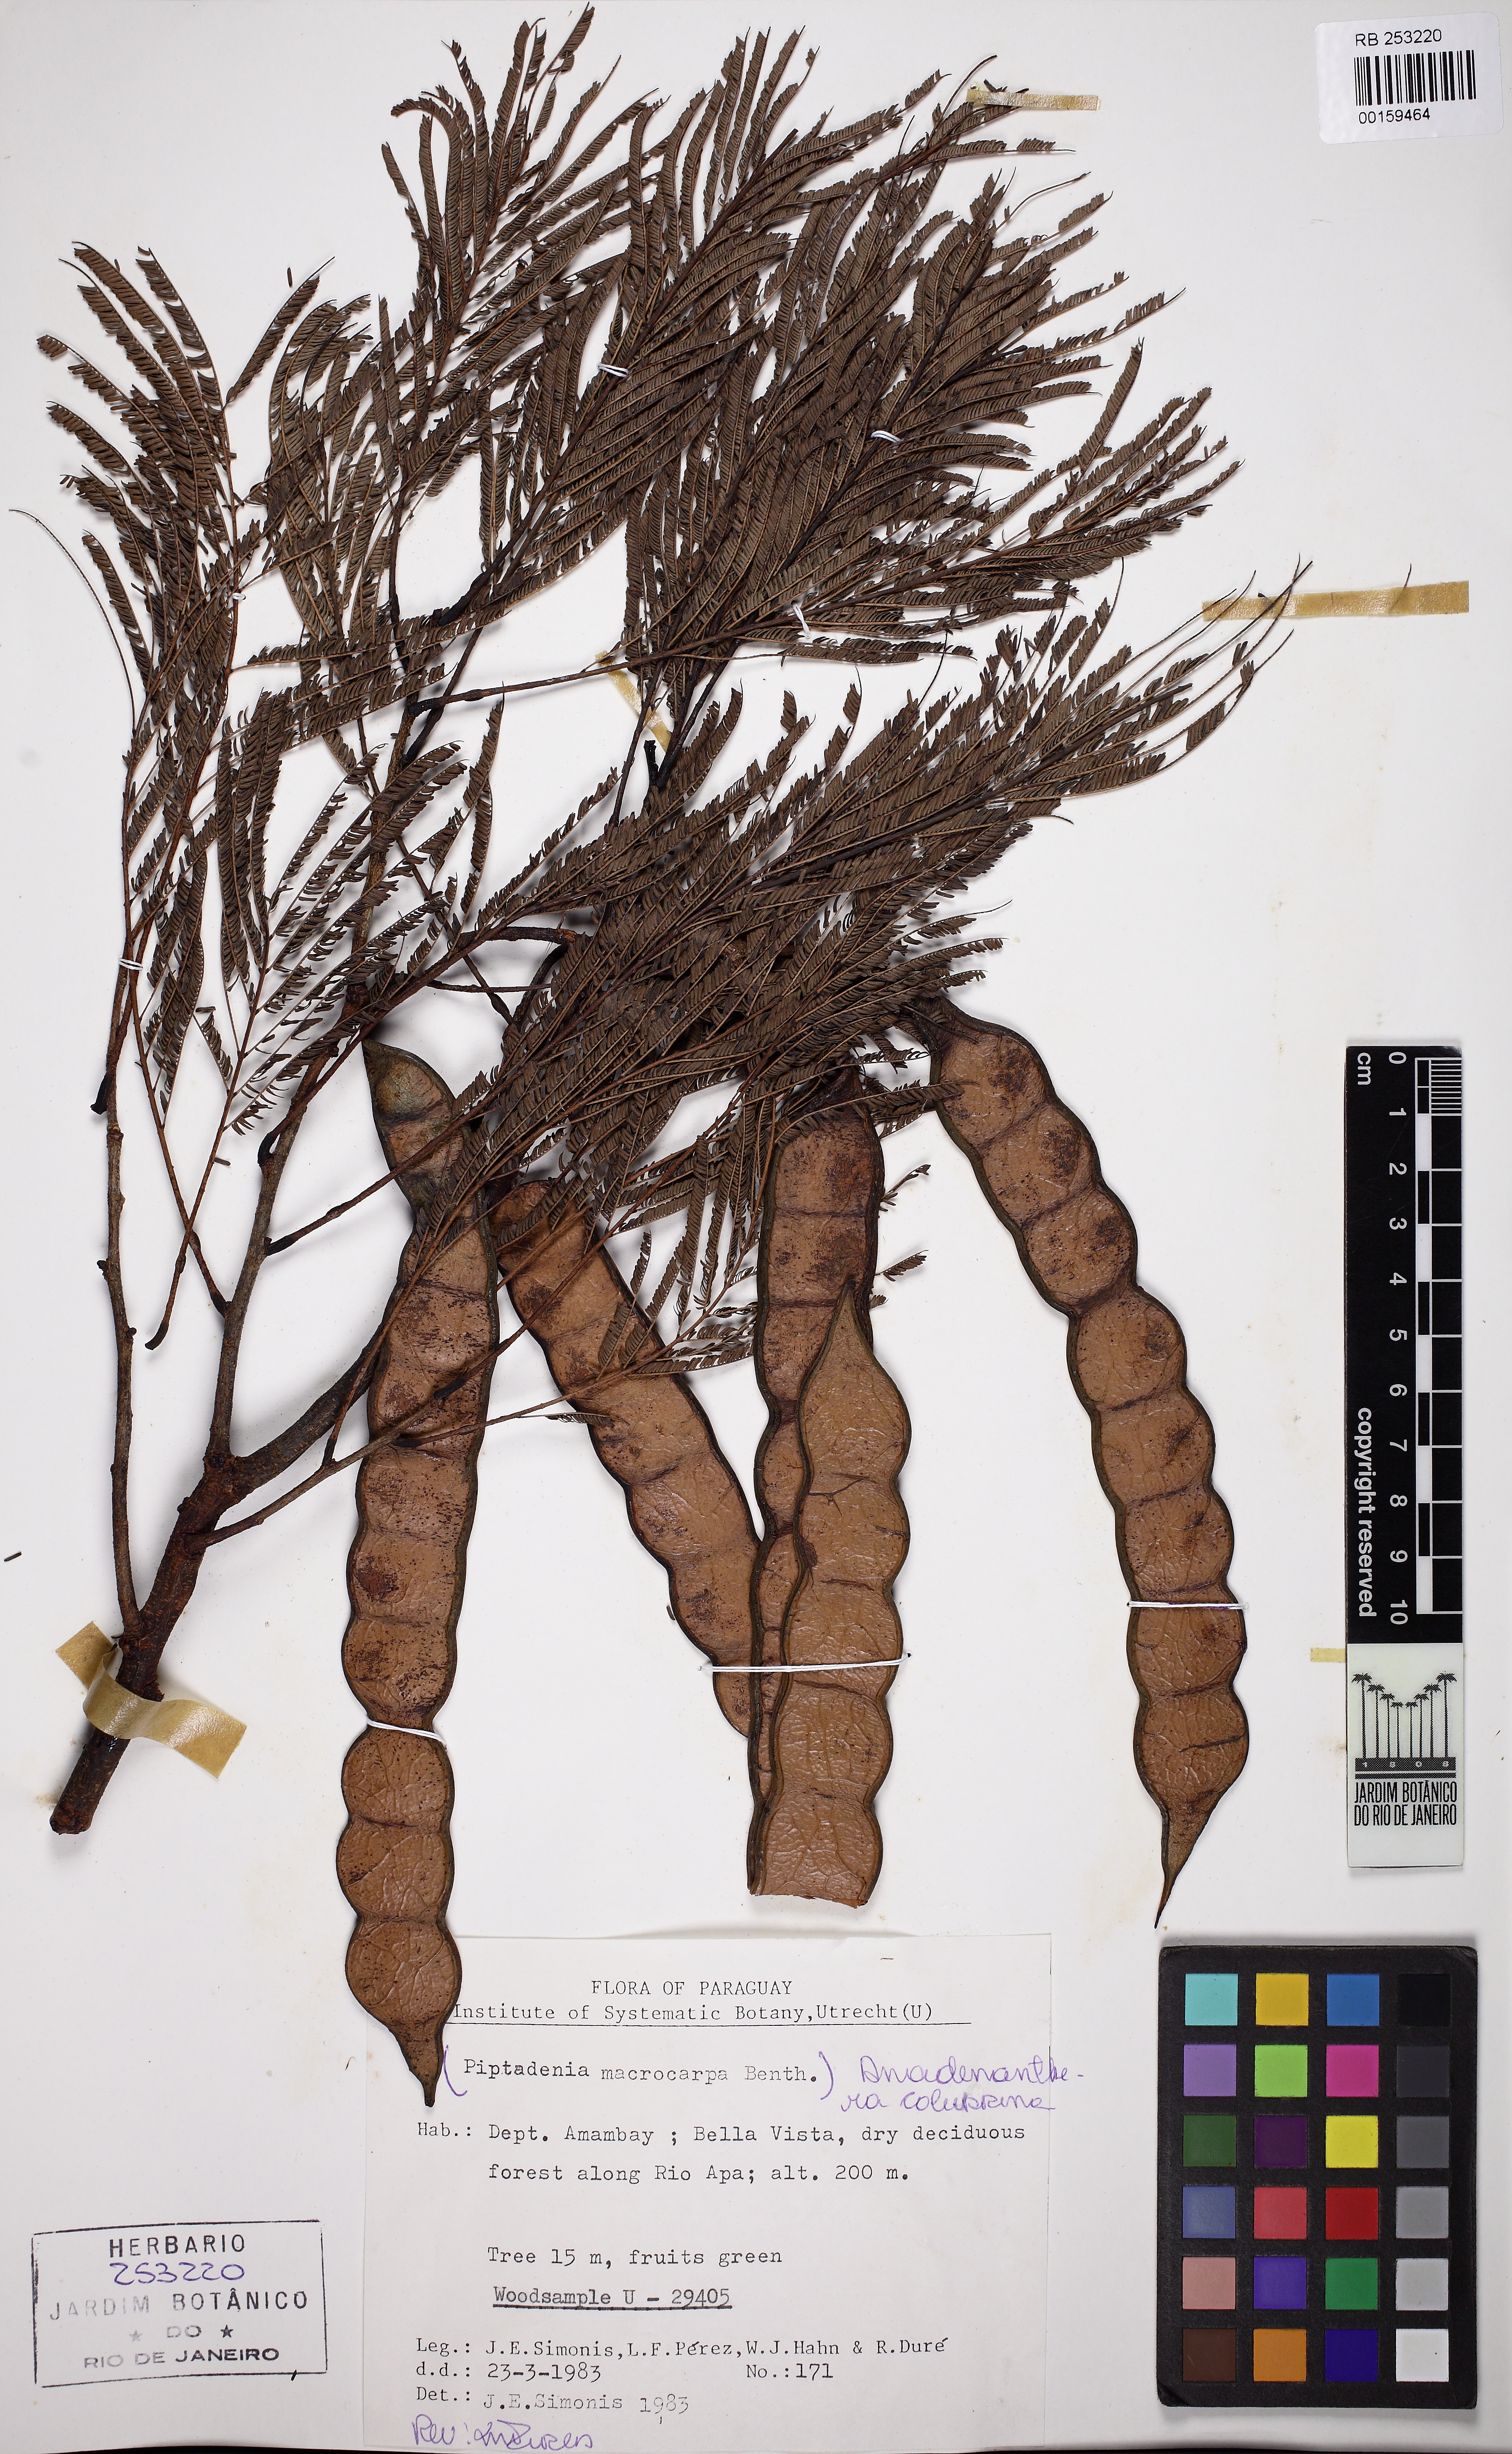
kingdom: Plantae
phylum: Tracheophyta
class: Magnoliopsida
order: Fabales
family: Fabaceae
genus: Anadenanthera
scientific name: Anadenanthera colubrina
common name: Curupay
